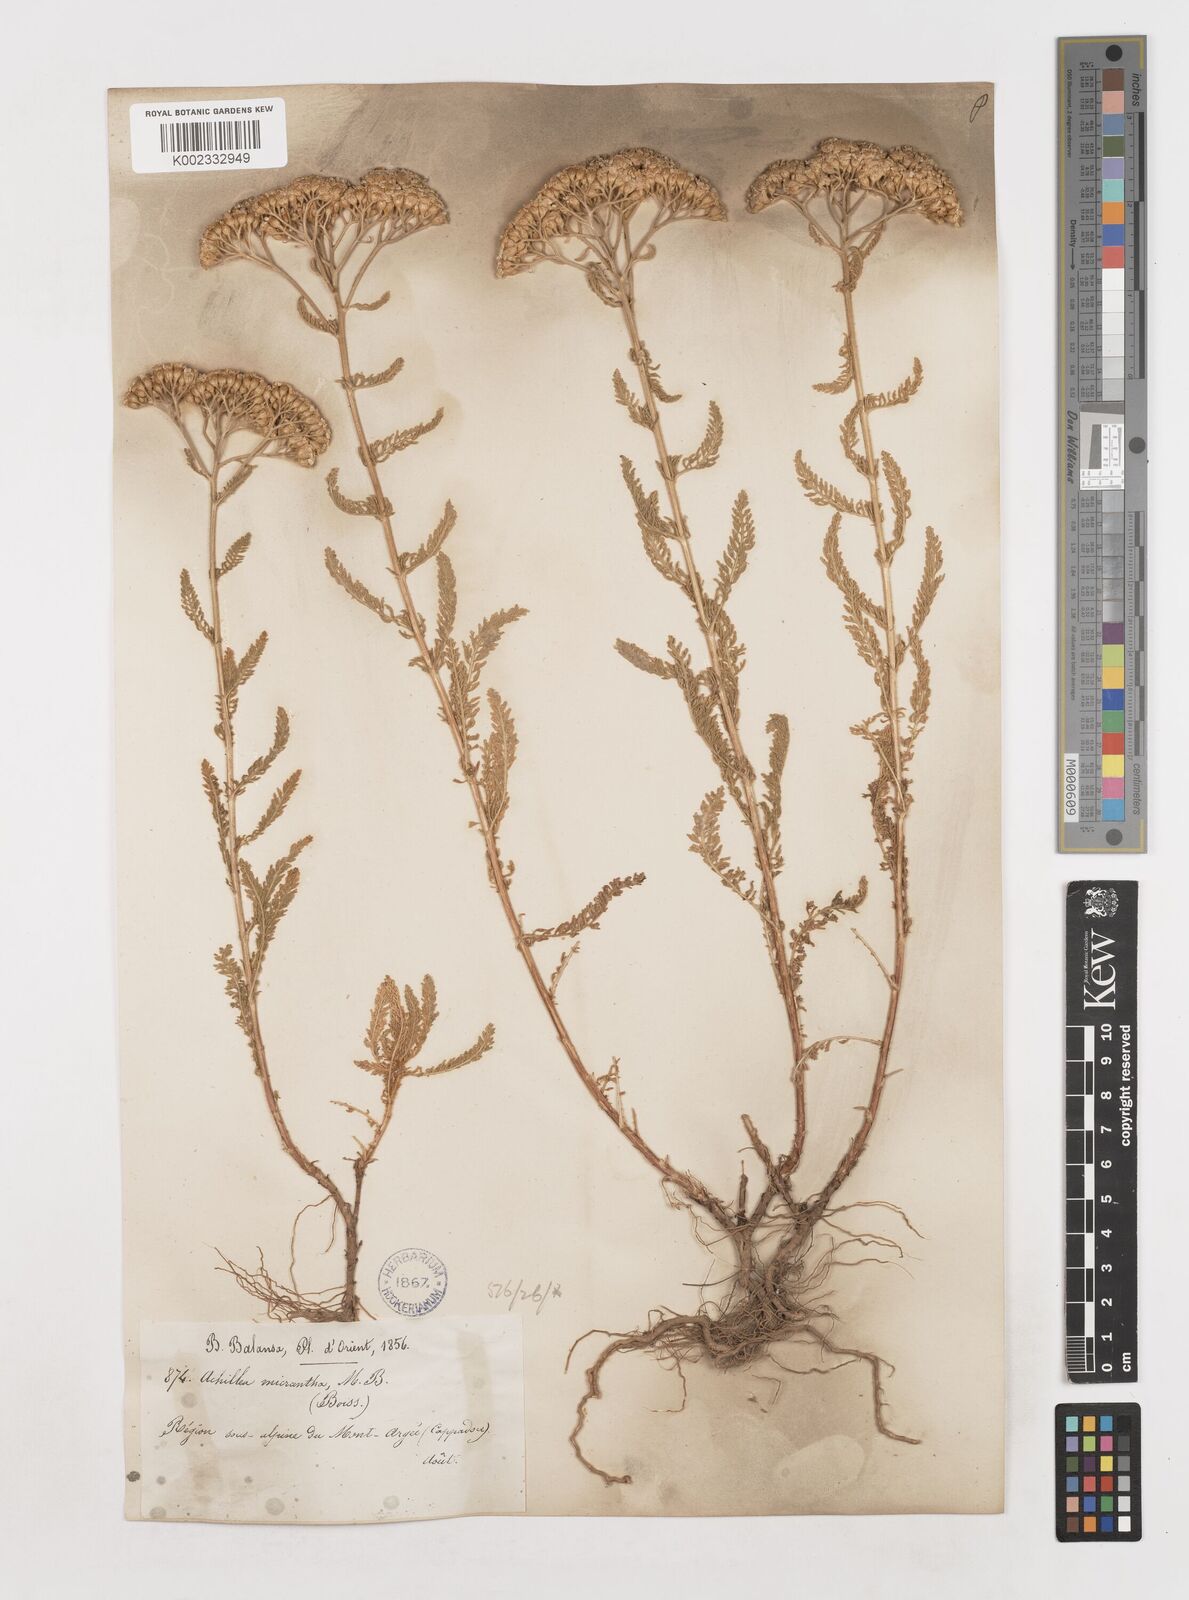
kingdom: Plantae
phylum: Tracheophyta
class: Magnoliopsida
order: Asterales
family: Asteraceae
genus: Achillea
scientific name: Achillea arabica
